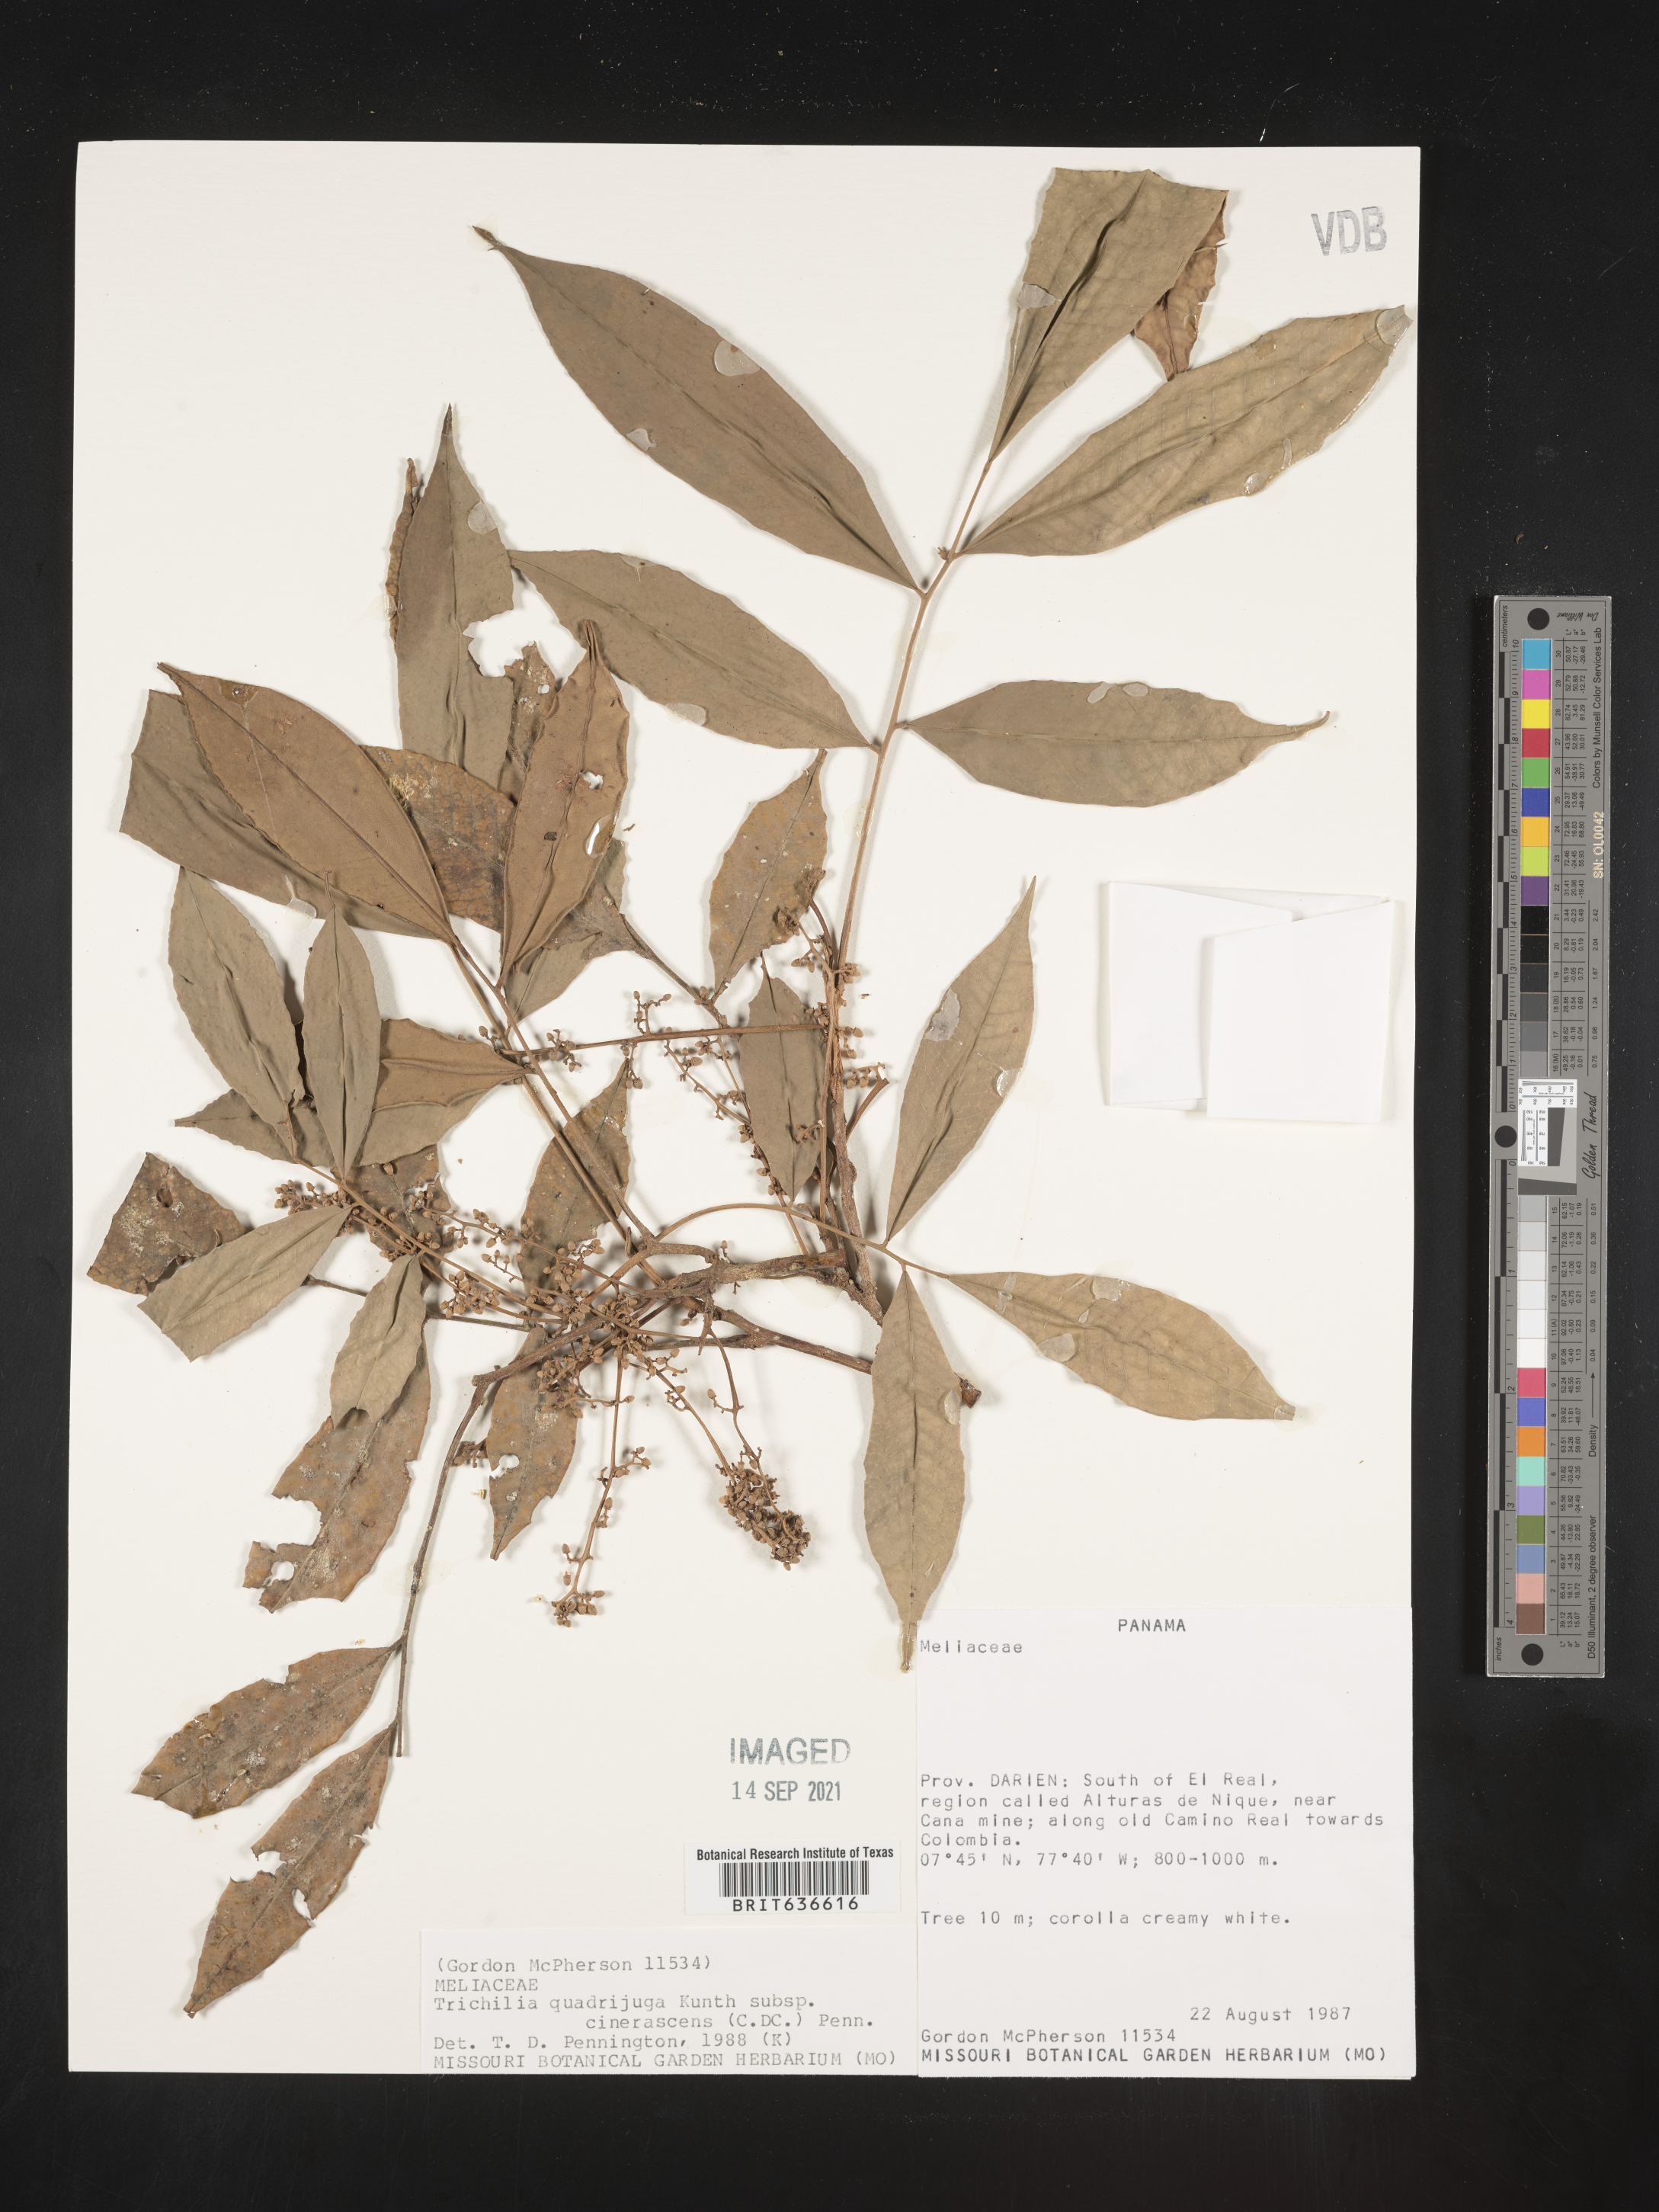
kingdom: Plantae
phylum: Tracheophyta
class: Magnoliopsida
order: Sapindales
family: Meliaceae
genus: Trichilia
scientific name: Trichilia
